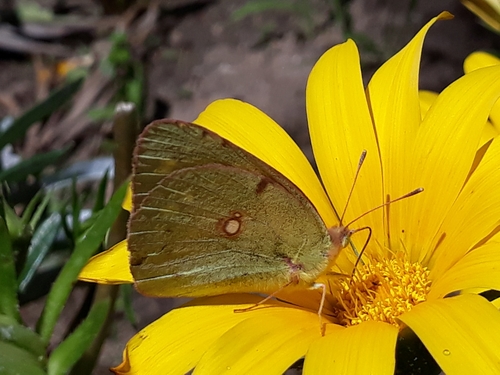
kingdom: Animalia
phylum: Arthropoda
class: Insecta
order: Lepidoptera
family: Pieridae
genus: Colias
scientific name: Colias croceus
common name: Clouded yellow
